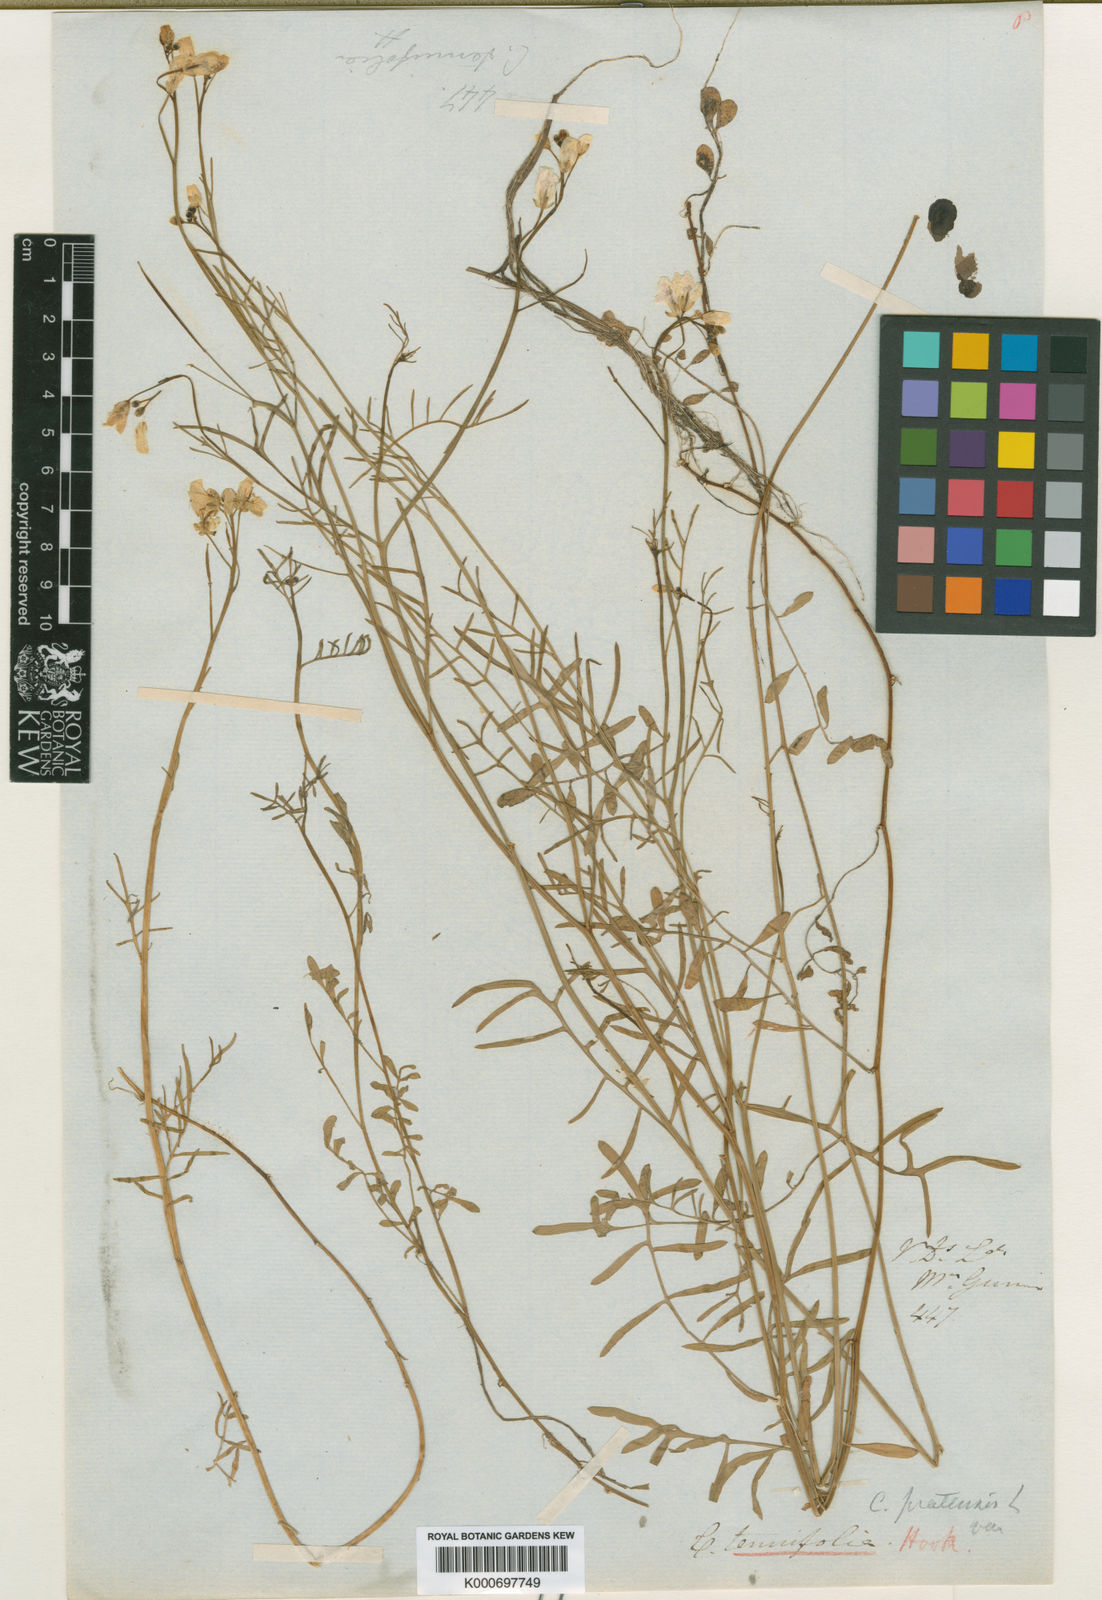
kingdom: Plantae
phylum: Tracheophyta
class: Magnoliopsida
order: Brassicales
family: Brassicaceae
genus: Cardamine
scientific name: Cardamine tenuifolia
